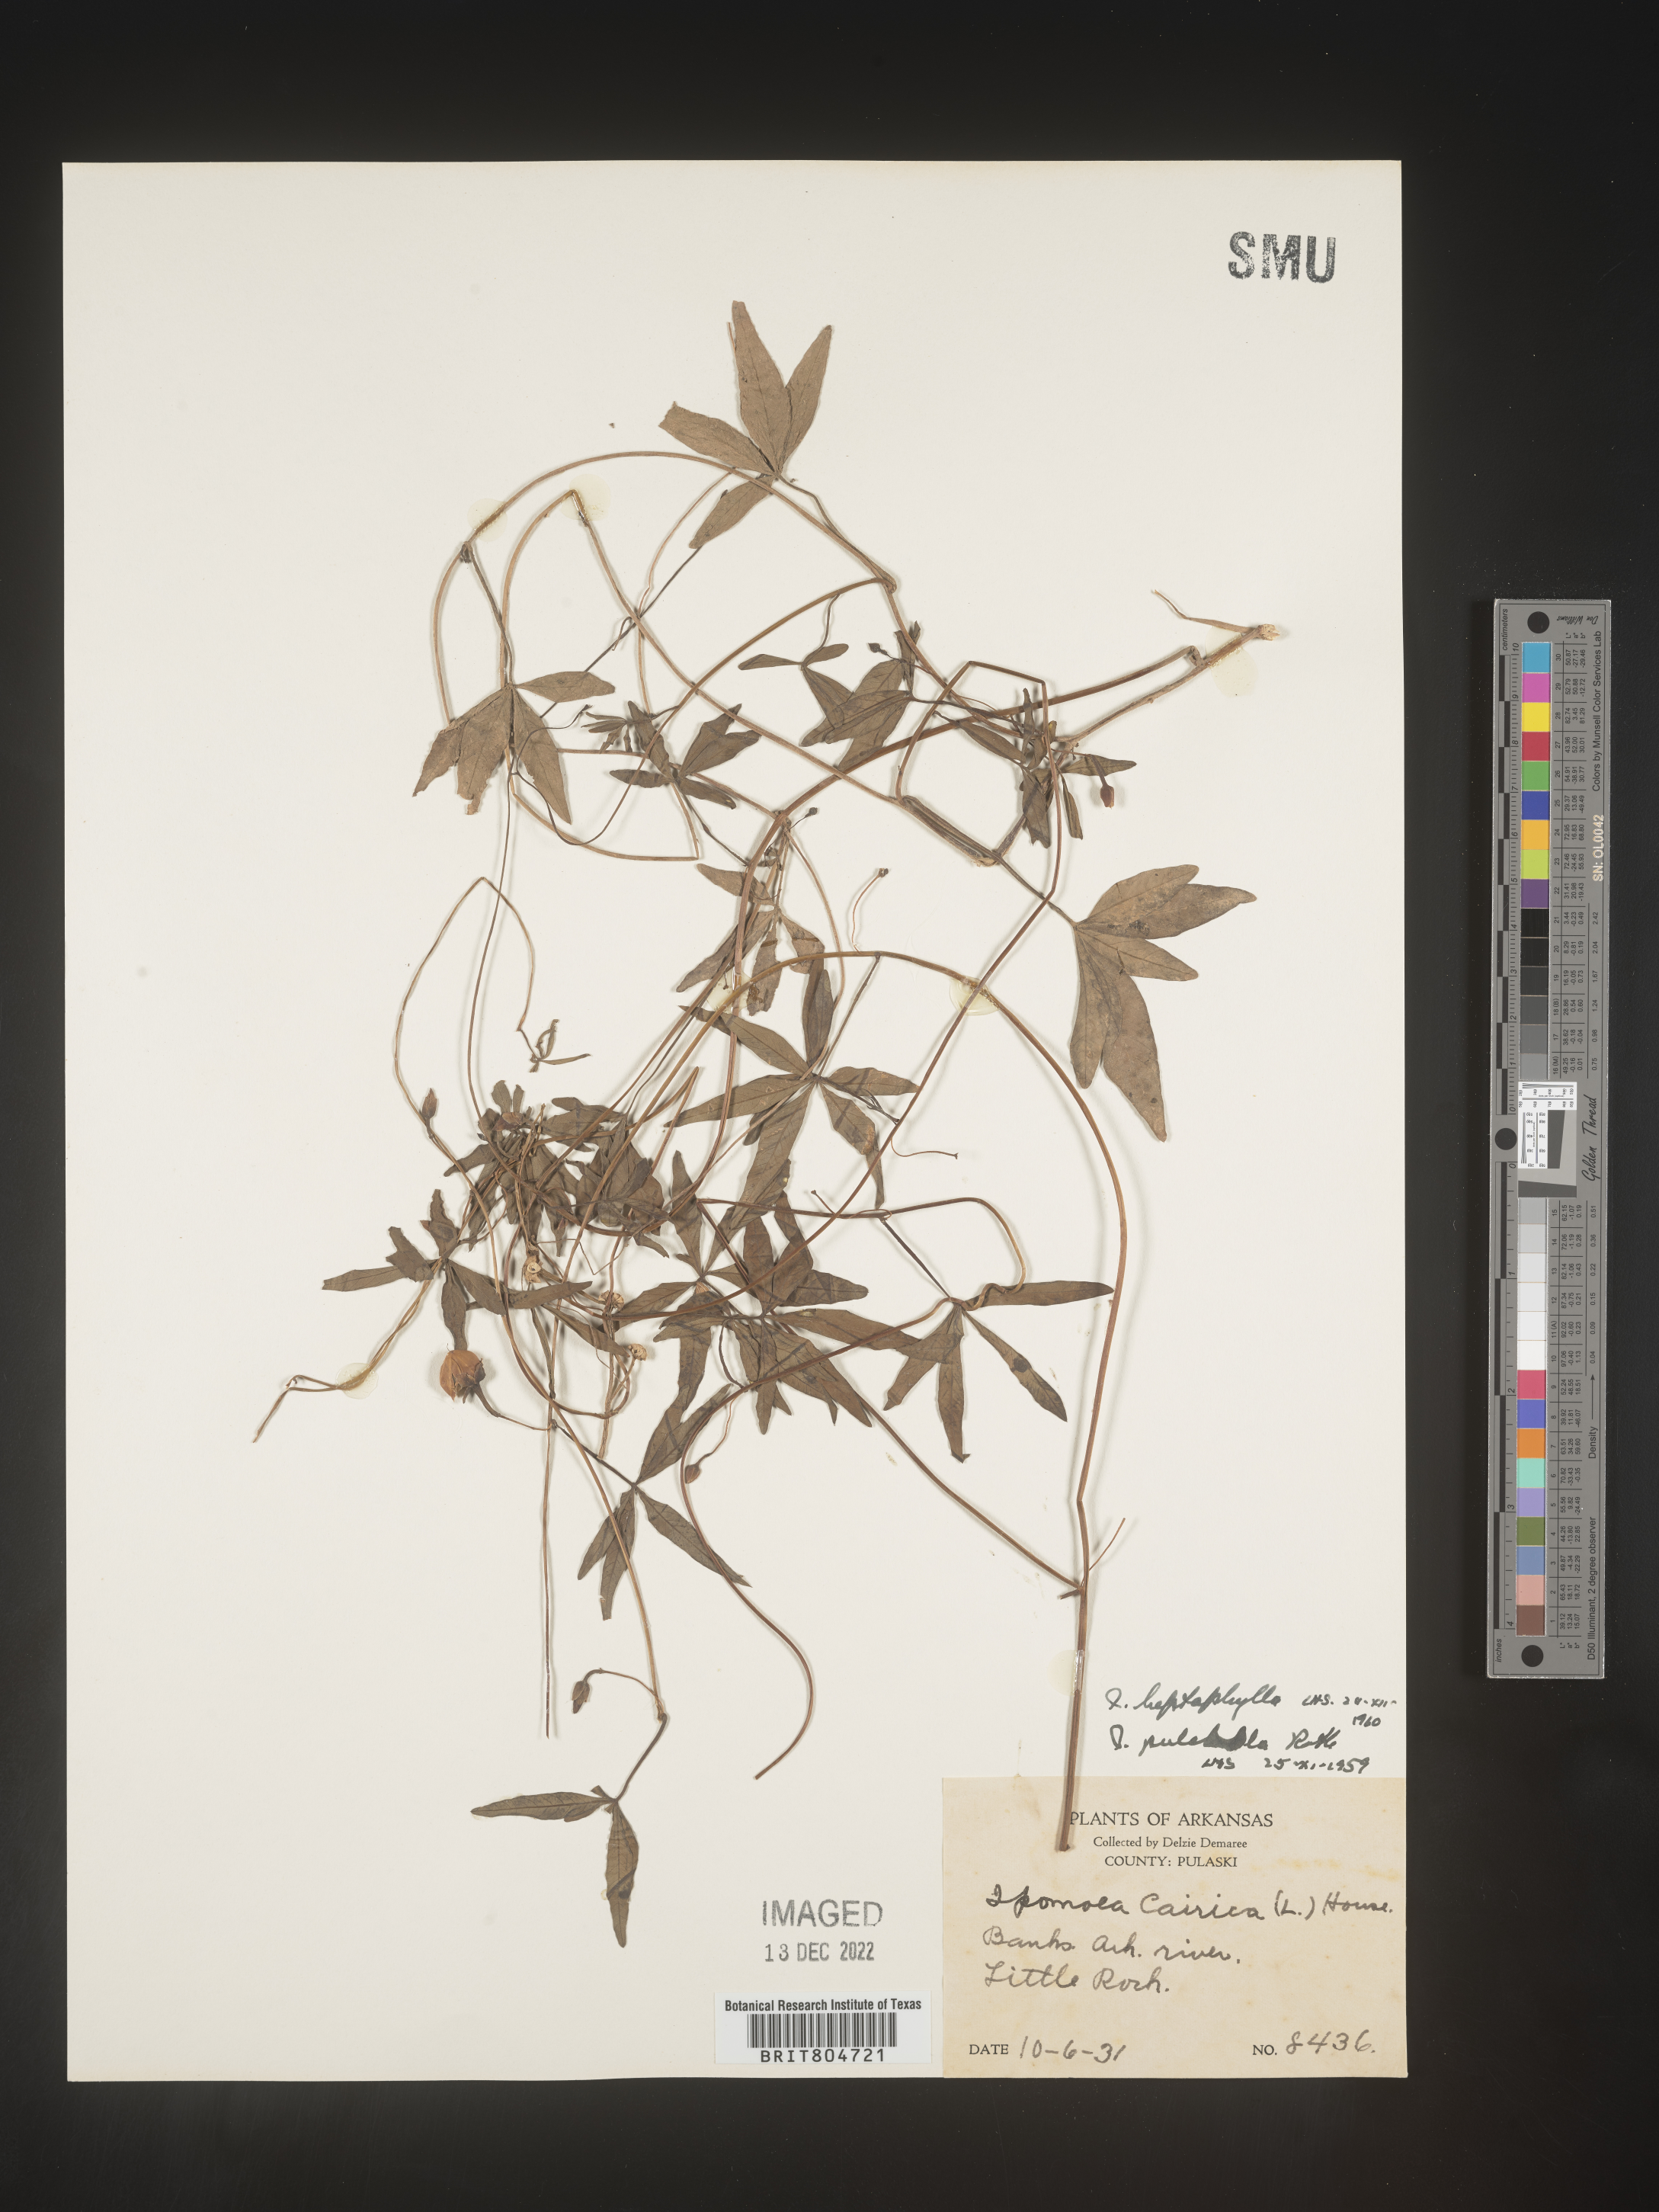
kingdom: Plantae
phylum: Tracheophyta
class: Magnoliopsida
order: Solanales
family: Convolvulaceae
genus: Ipomoea
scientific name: Ipomoea tenuipes
